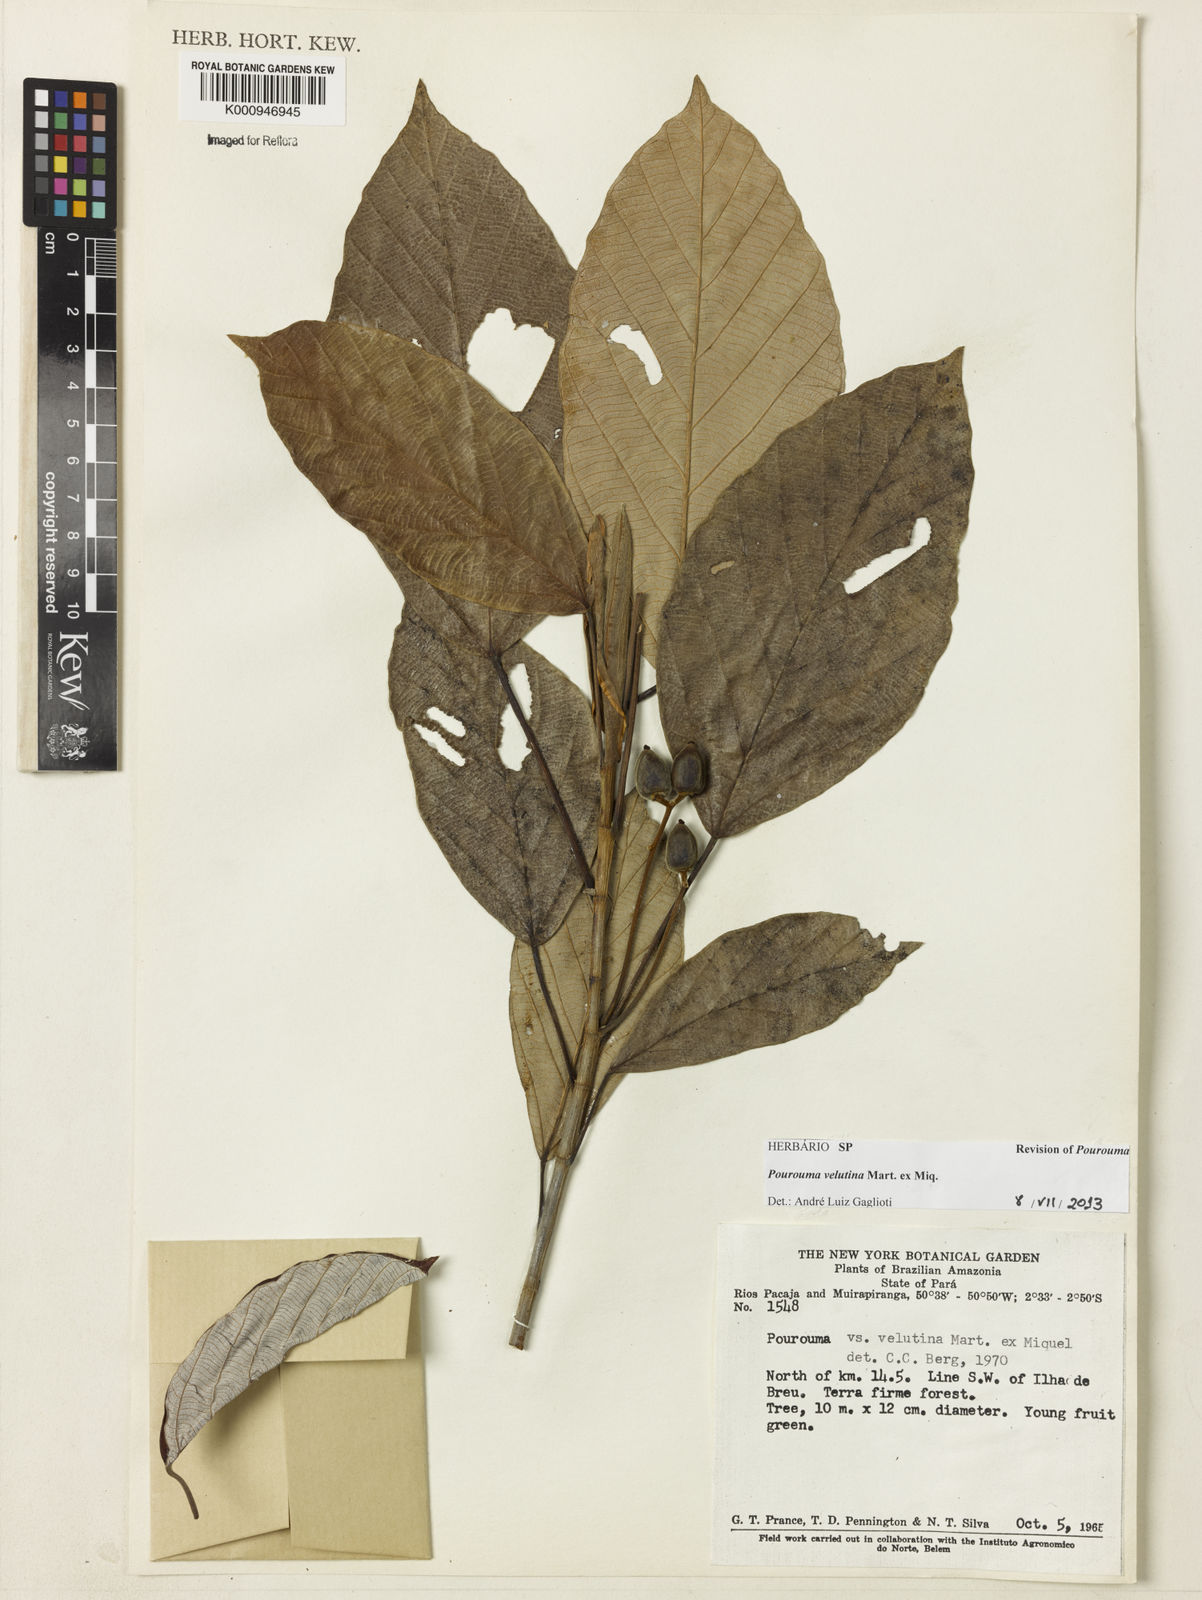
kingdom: Plantae
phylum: Tracheophyta
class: Magnoliopsida
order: Rosales
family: Urticaceae
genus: Pourouma
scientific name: Pourouma velutina
